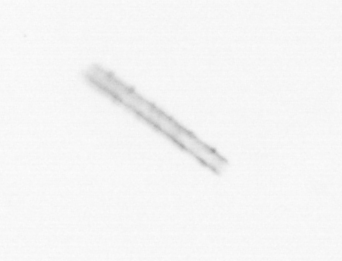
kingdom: Chromista
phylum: Ochrophyta
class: Bacillariophyceae
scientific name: Bacillariophyceae
